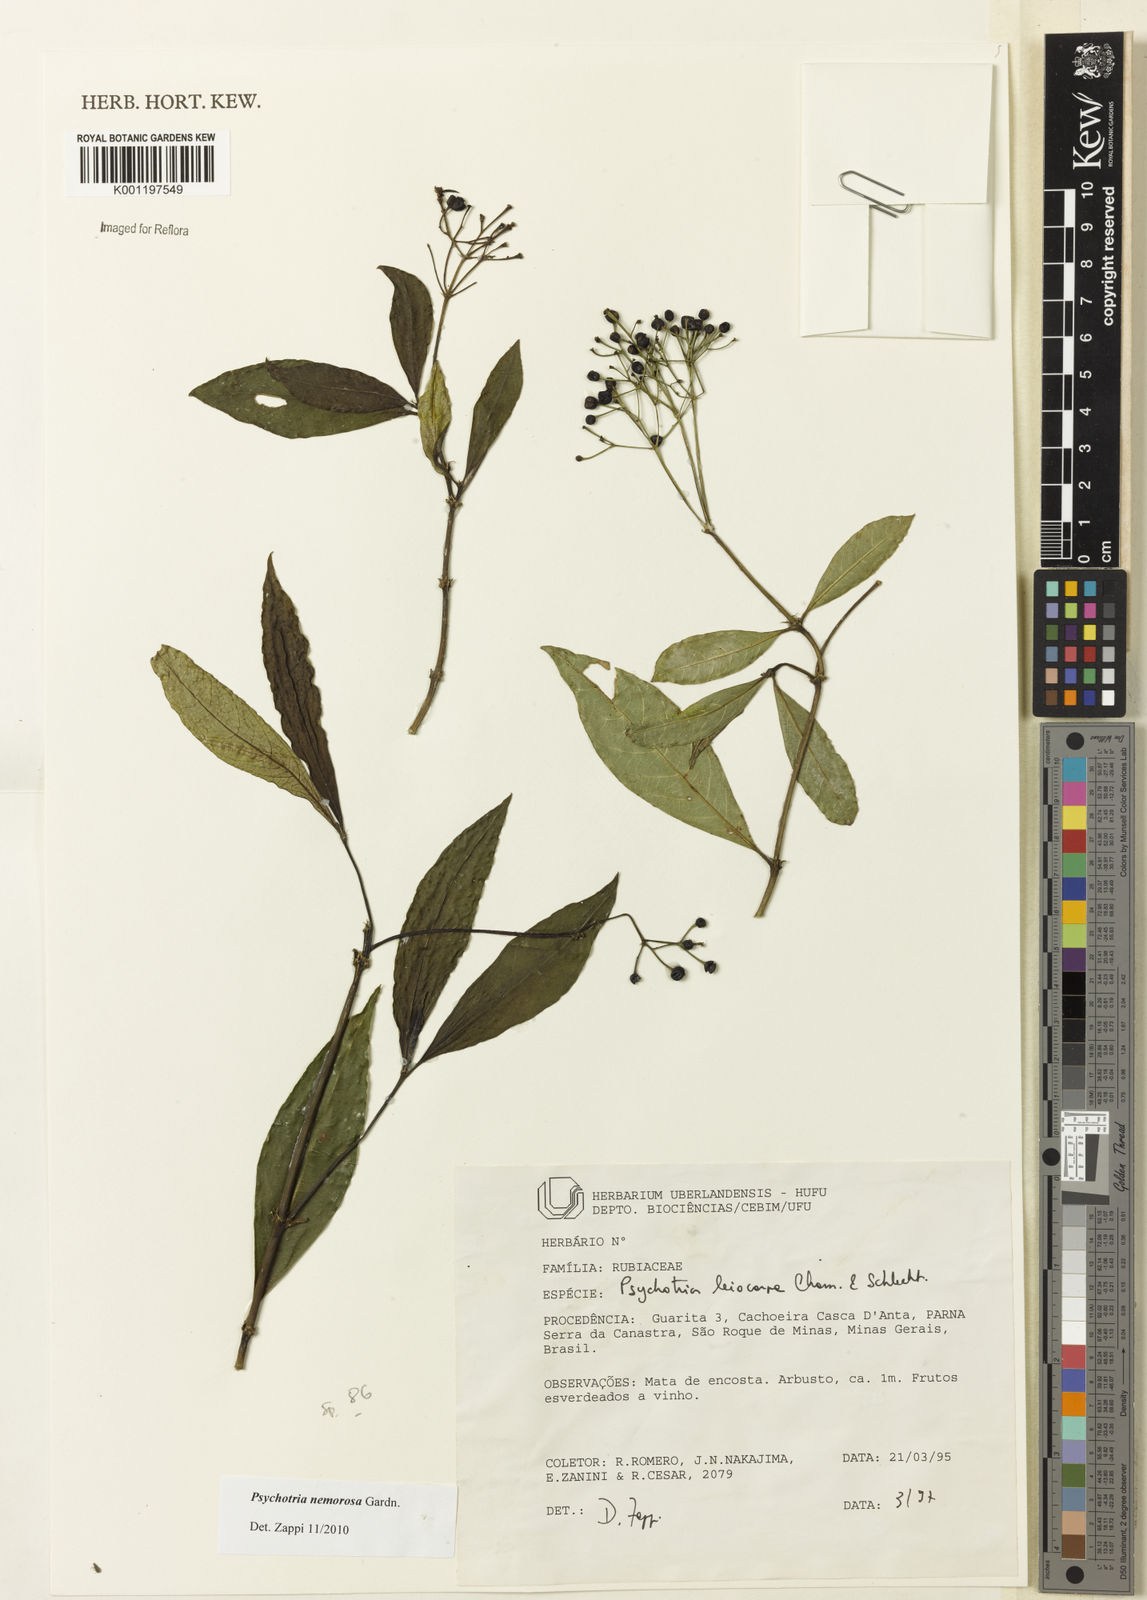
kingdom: Plantae
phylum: Tracheophyta
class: Magnoliopsida
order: Gentianales
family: Rubiaceae
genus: Psychotria
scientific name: Psychotria nemorosa
